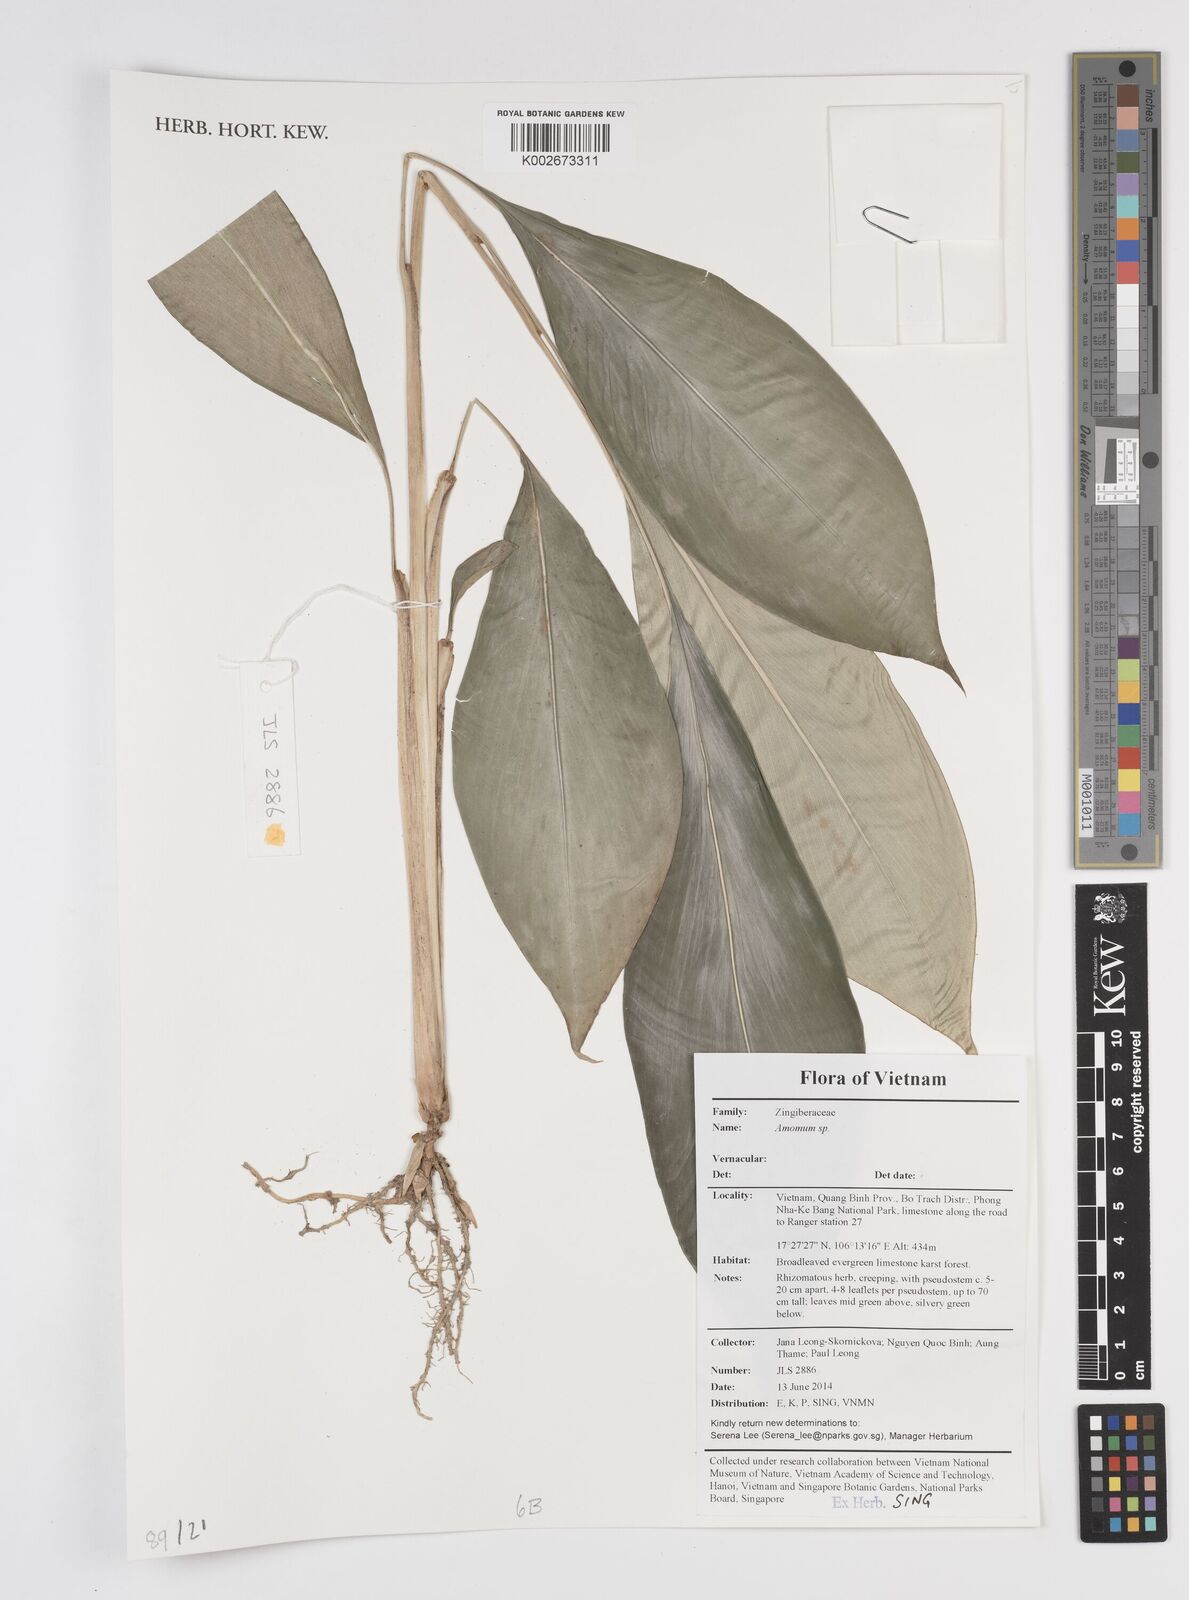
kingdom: Plantae
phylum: Tracheophyta
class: Liliopsida
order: Zingiberales
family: Zingiberaceae
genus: Amomum
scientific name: Amomum
